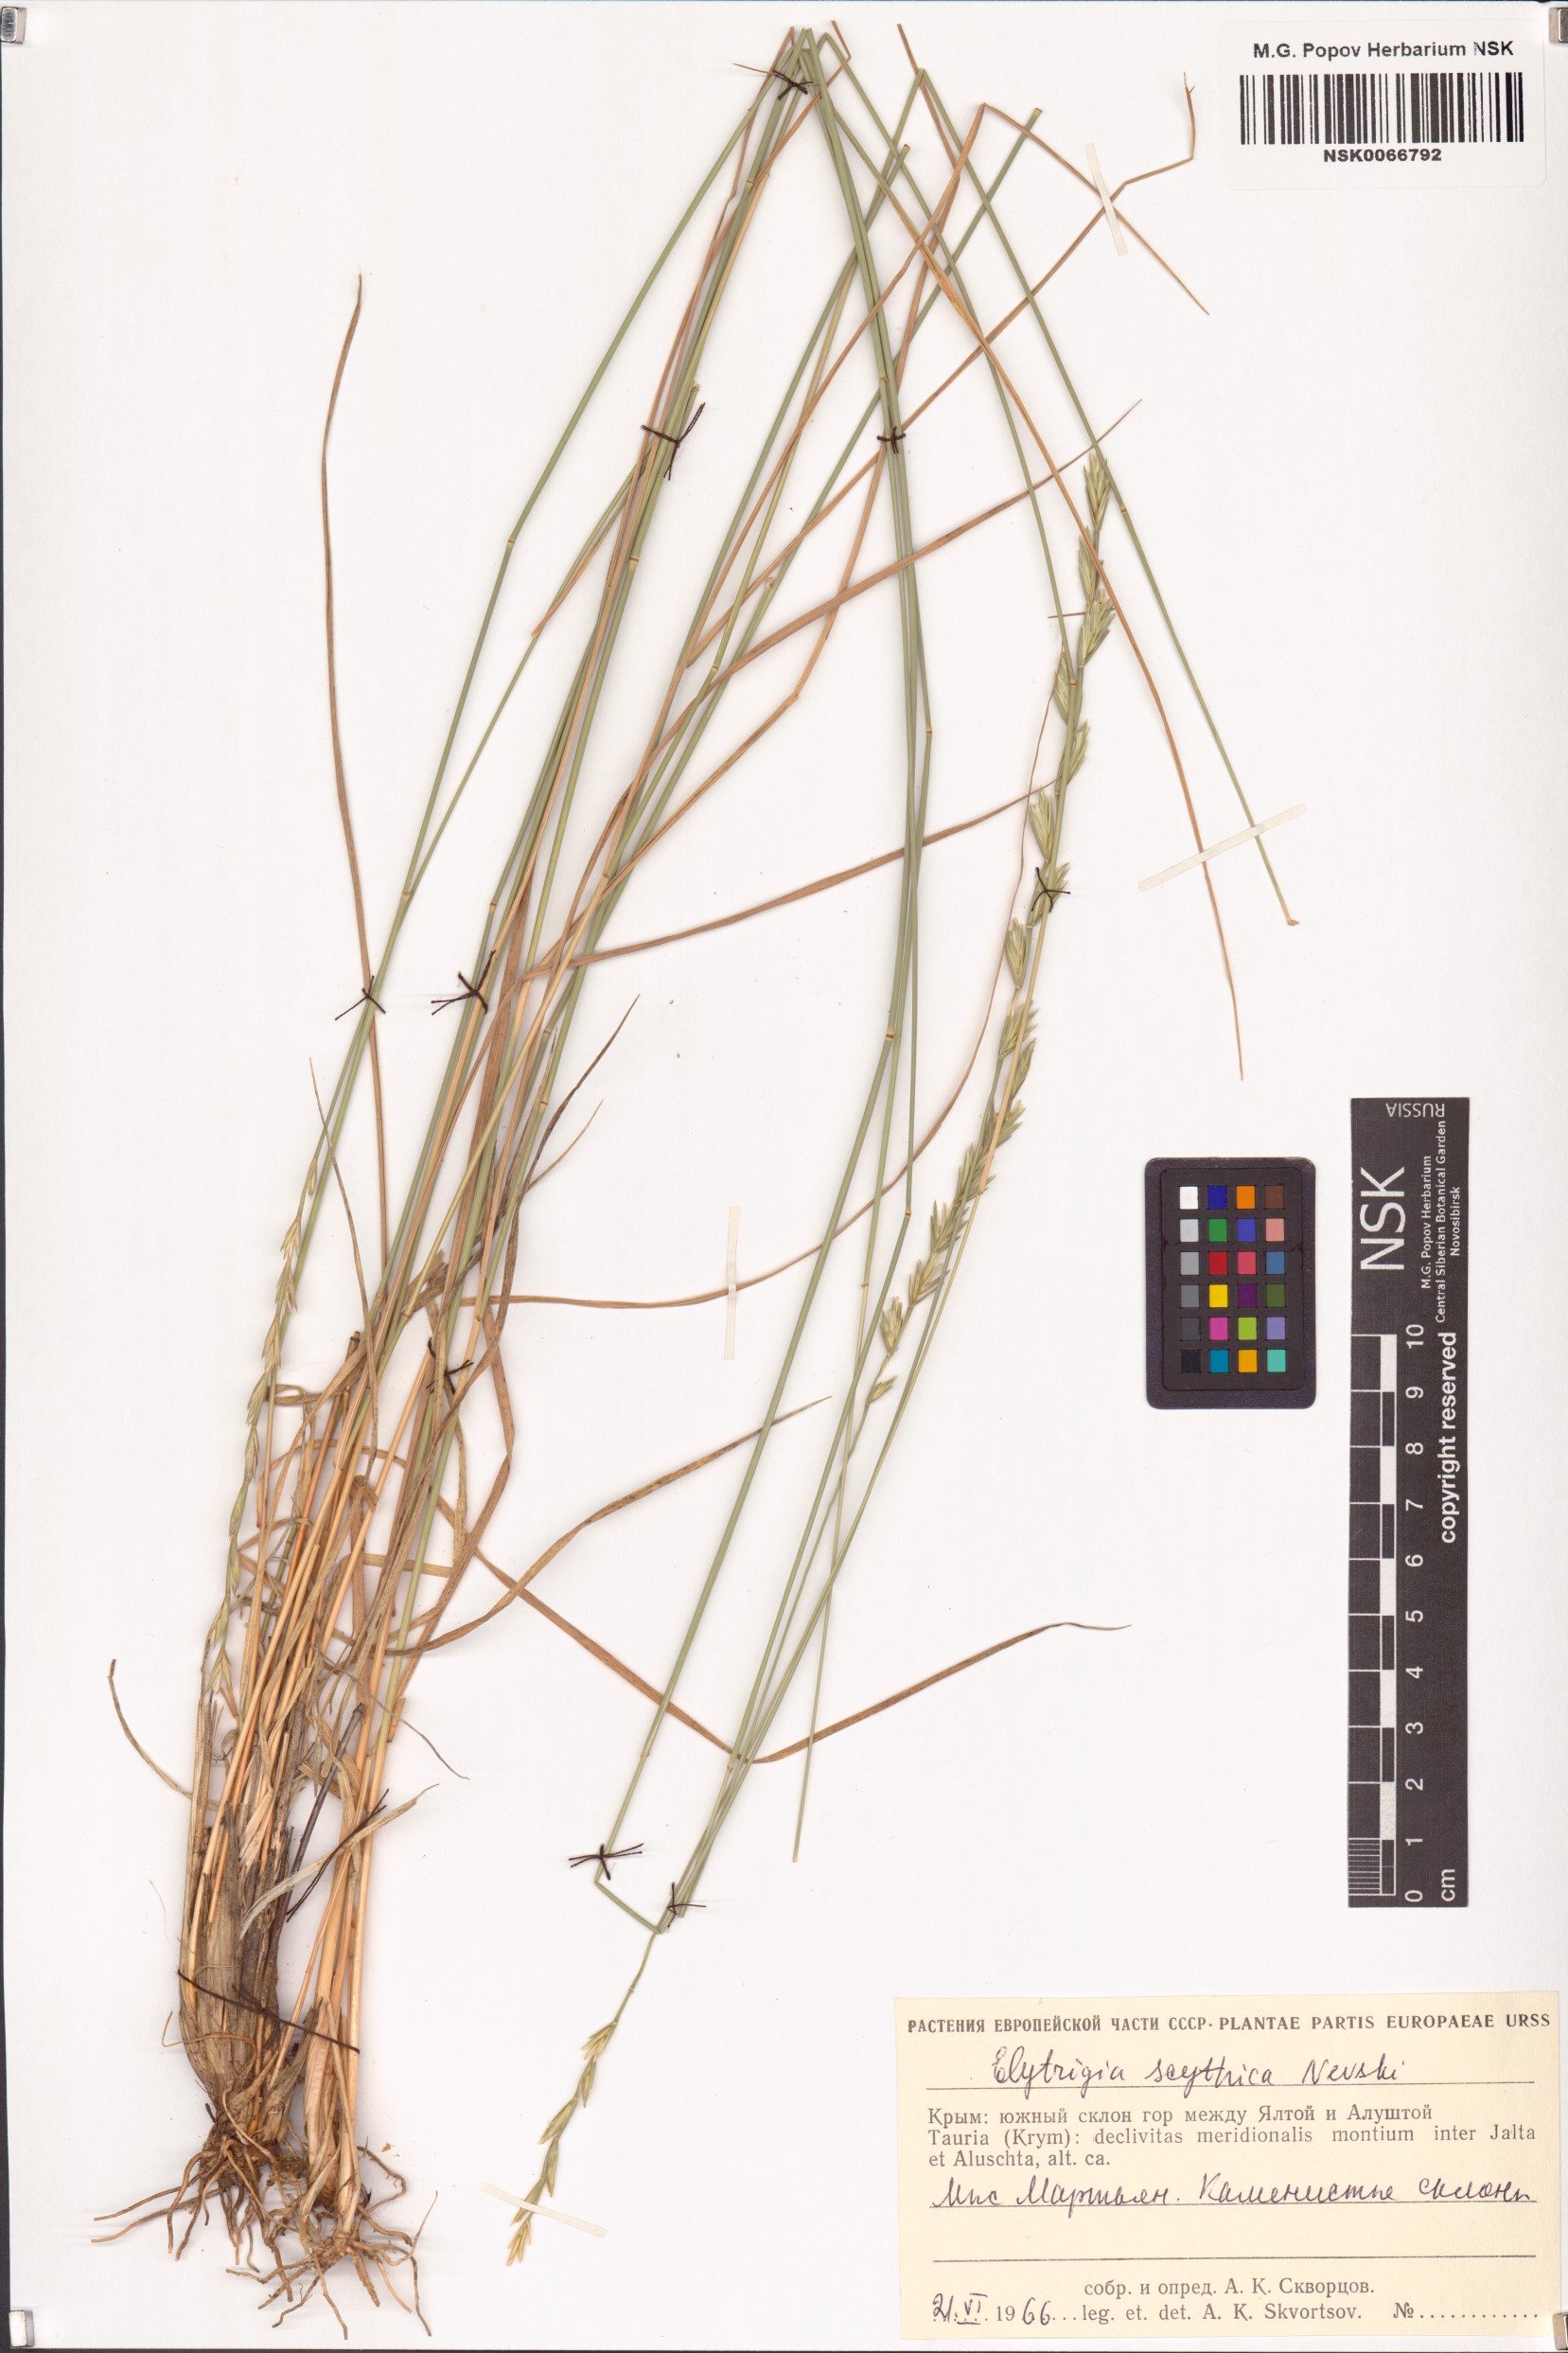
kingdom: Plantae
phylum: Tracheophyta
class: Liliopsida
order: Poales
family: Poaceae
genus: Pseudoroegneria
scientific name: Pseudoroegneria geniculata
